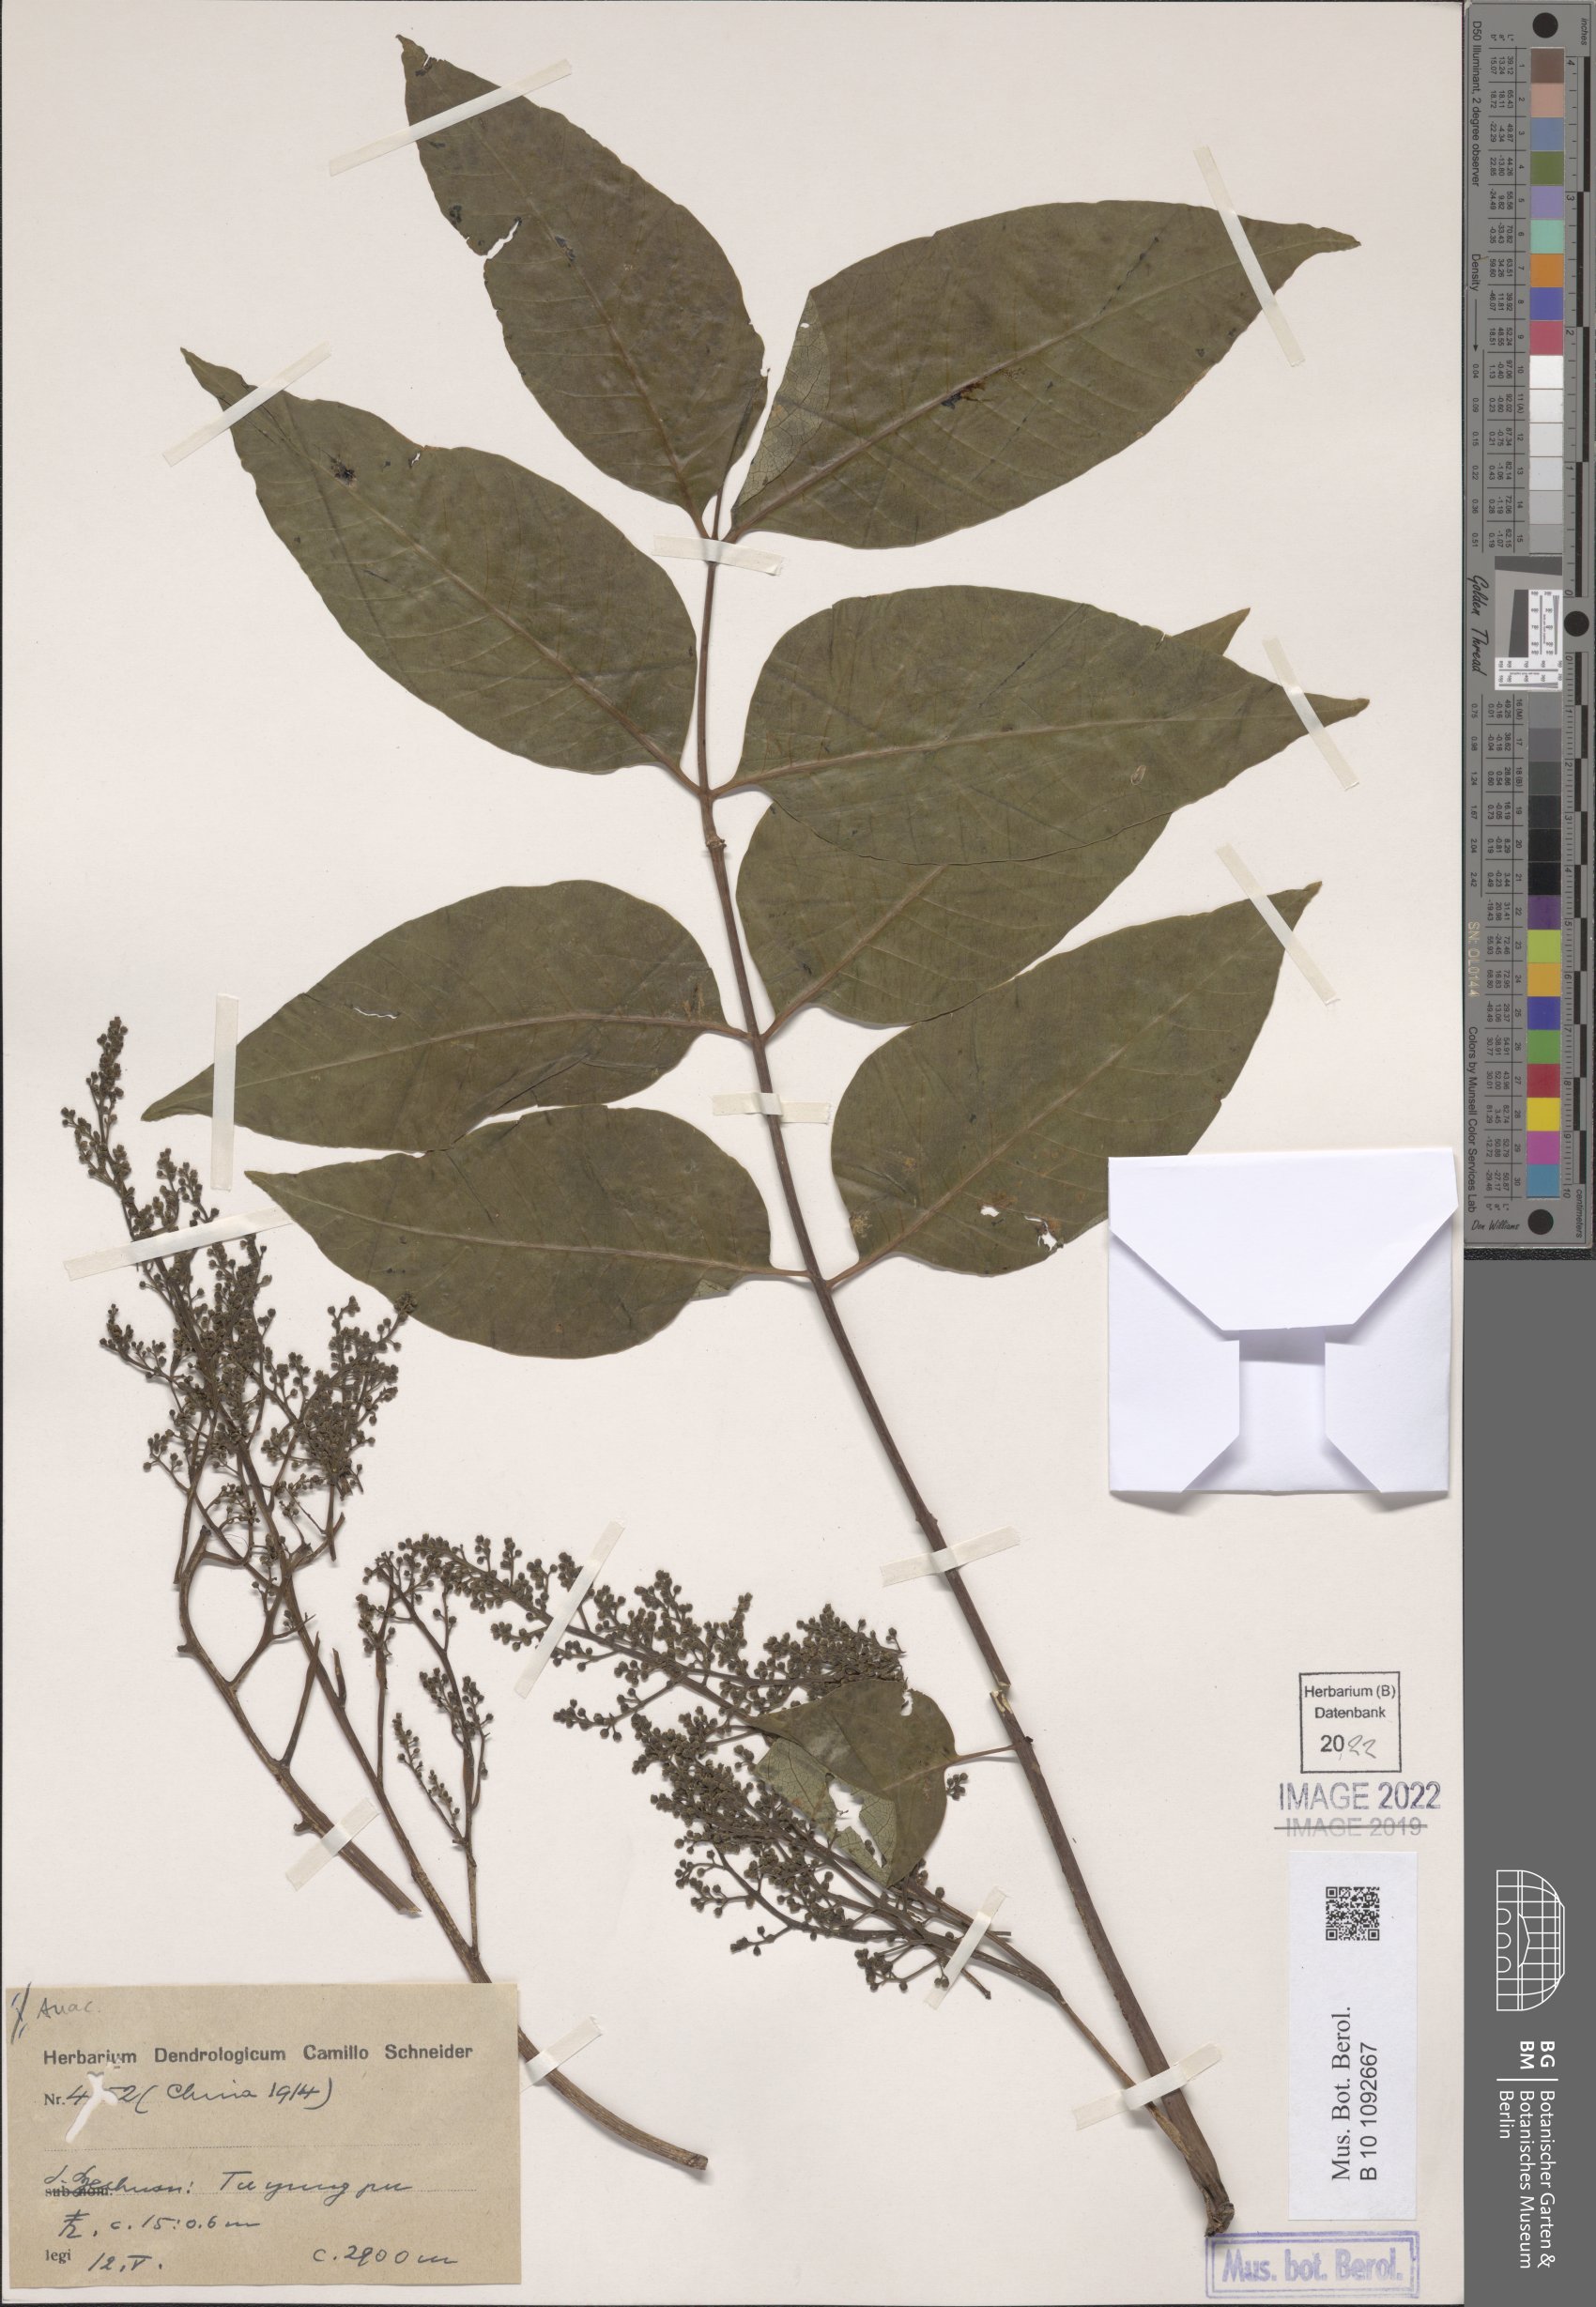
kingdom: Plantae
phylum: Tracheophyta
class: Magnoliopsida
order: Sapindales
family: Anacardiaceae
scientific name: Anacardiaceae
